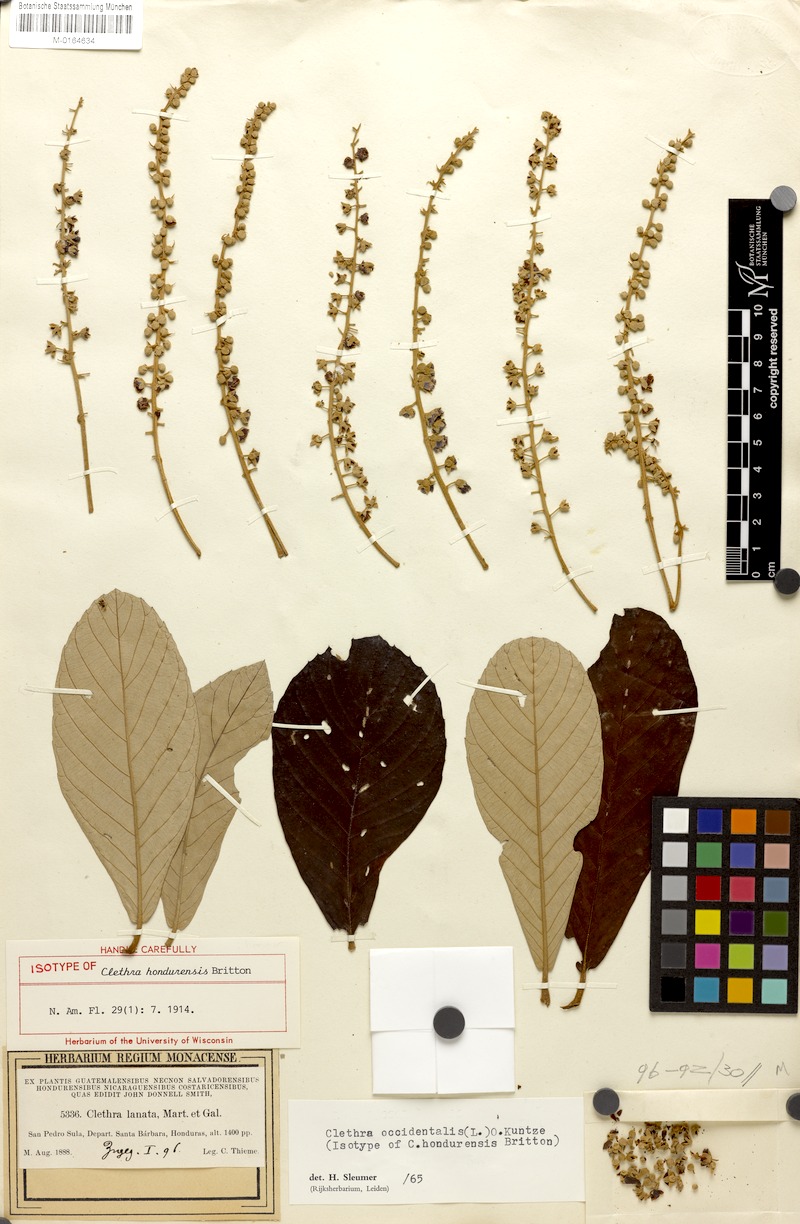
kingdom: Plantae
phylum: Tracheophyta
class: Magnoliopsida
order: Ericales
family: Clethraceae
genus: Clethra
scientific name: Clethra occidentalis
